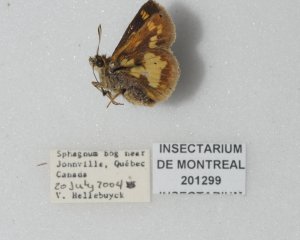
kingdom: Animalia
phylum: Arthropoda
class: Insecta
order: Lepidoptera
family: Hesperiidae
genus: Polites
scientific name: Polites coras
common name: Peck's Skipper
